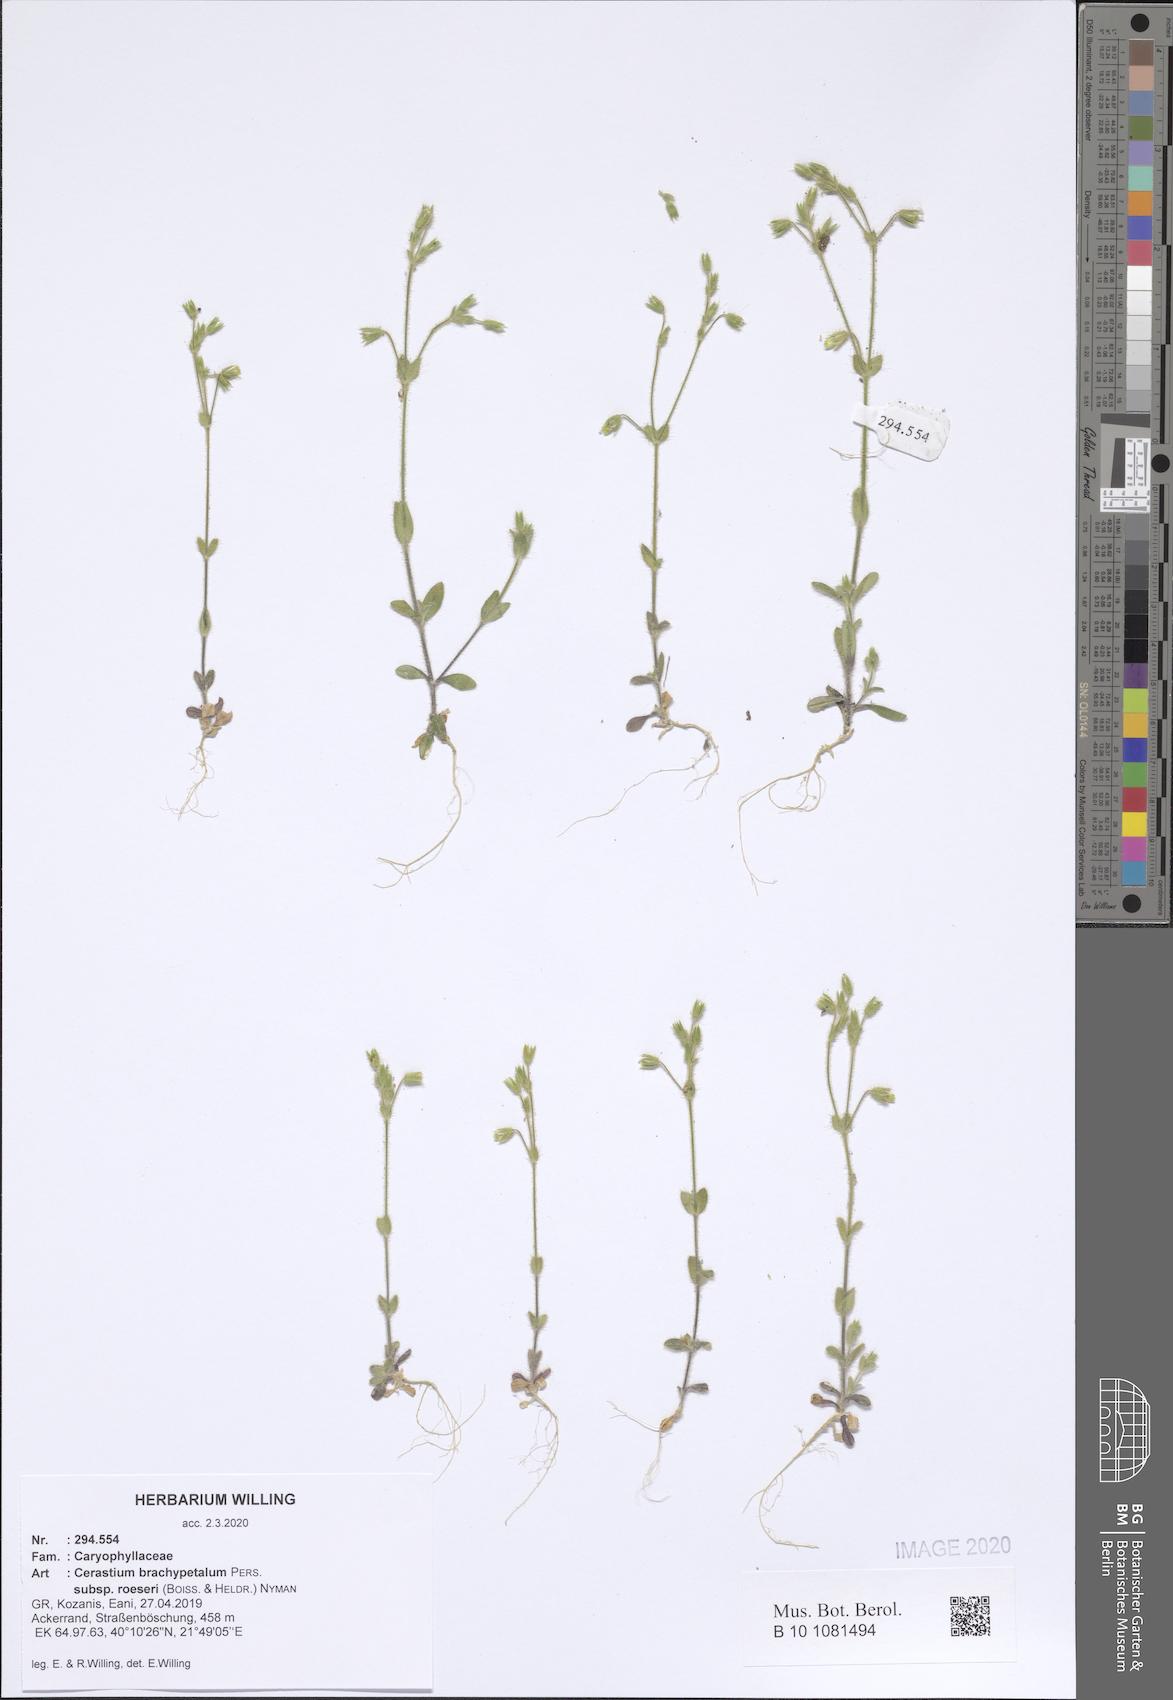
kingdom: Plantae
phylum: Tracheophyta
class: Magnoliopsida
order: Caryophyllales
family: Caryophyllaceae
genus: Cerastium
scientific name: Cerastium brachypetalum
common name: Grey mouse-ear
